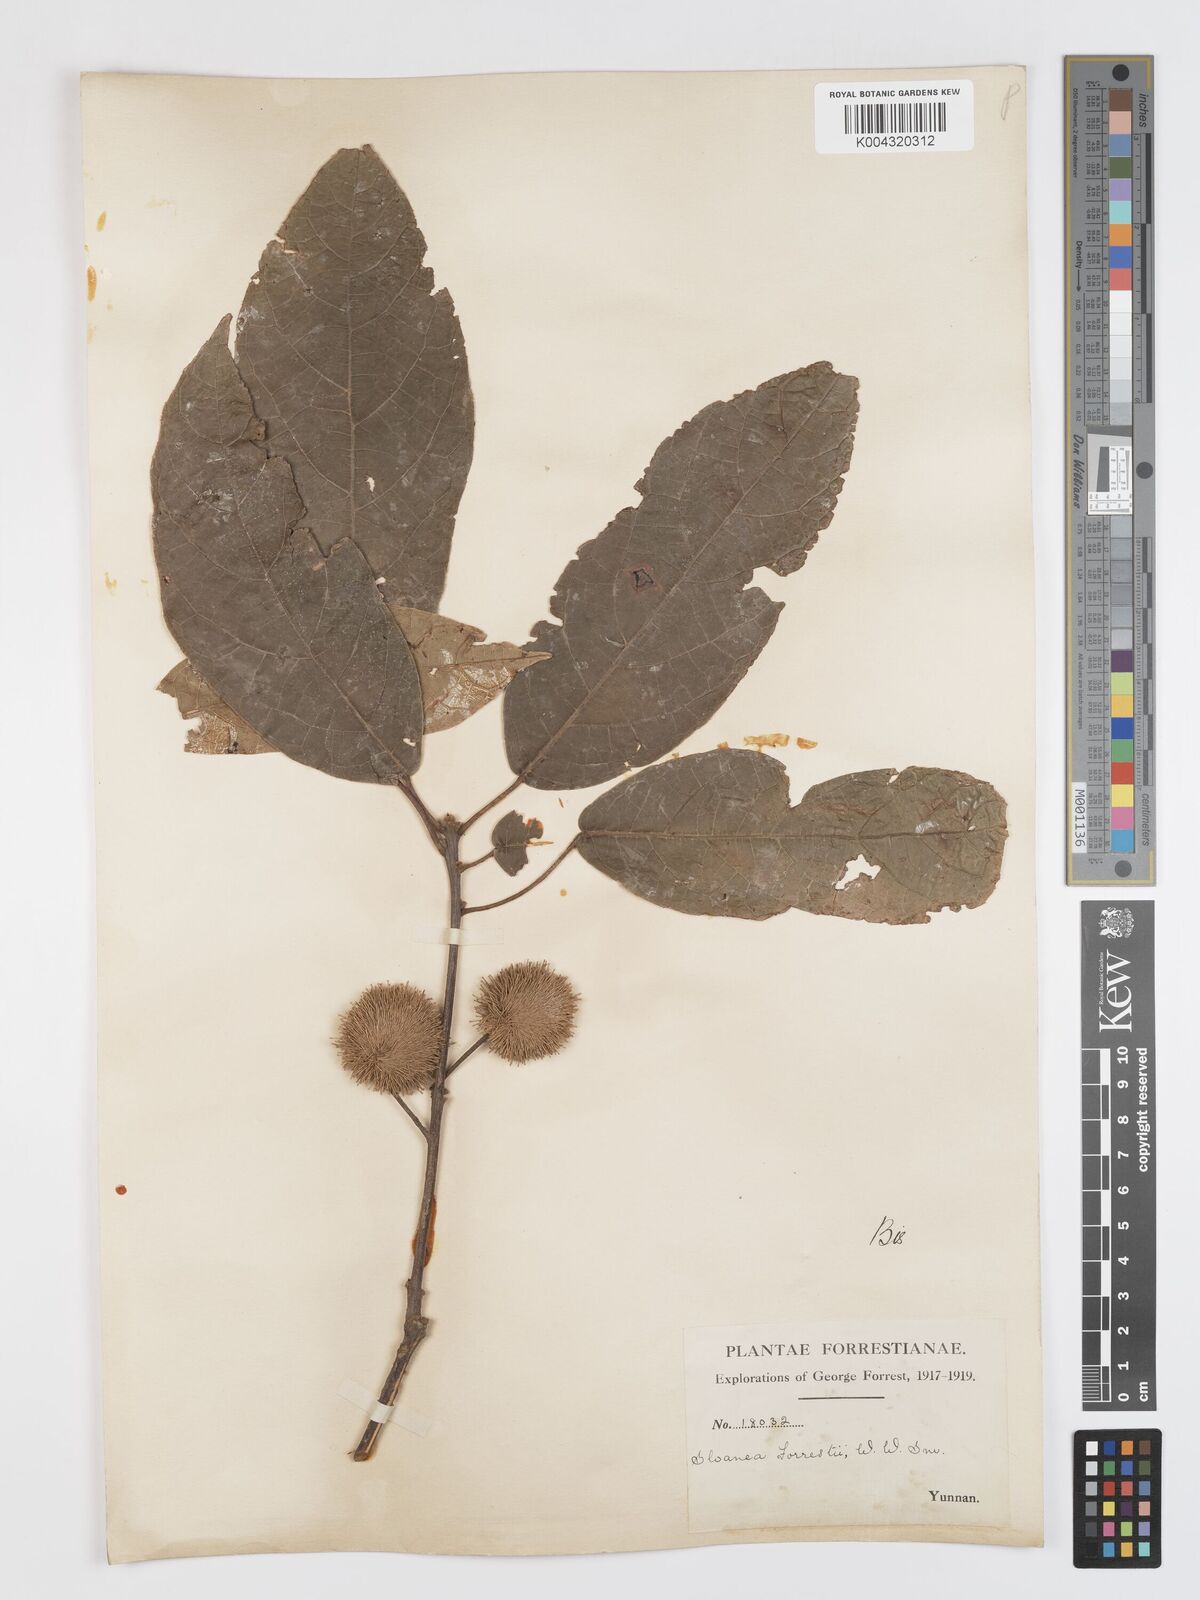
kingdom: Plantae
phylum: Tracheophyta
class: Magnoliopsida
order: Oxalidales
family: Elaeocarpaceae
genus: Sloanea
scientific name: Sloanea sterculiacea
